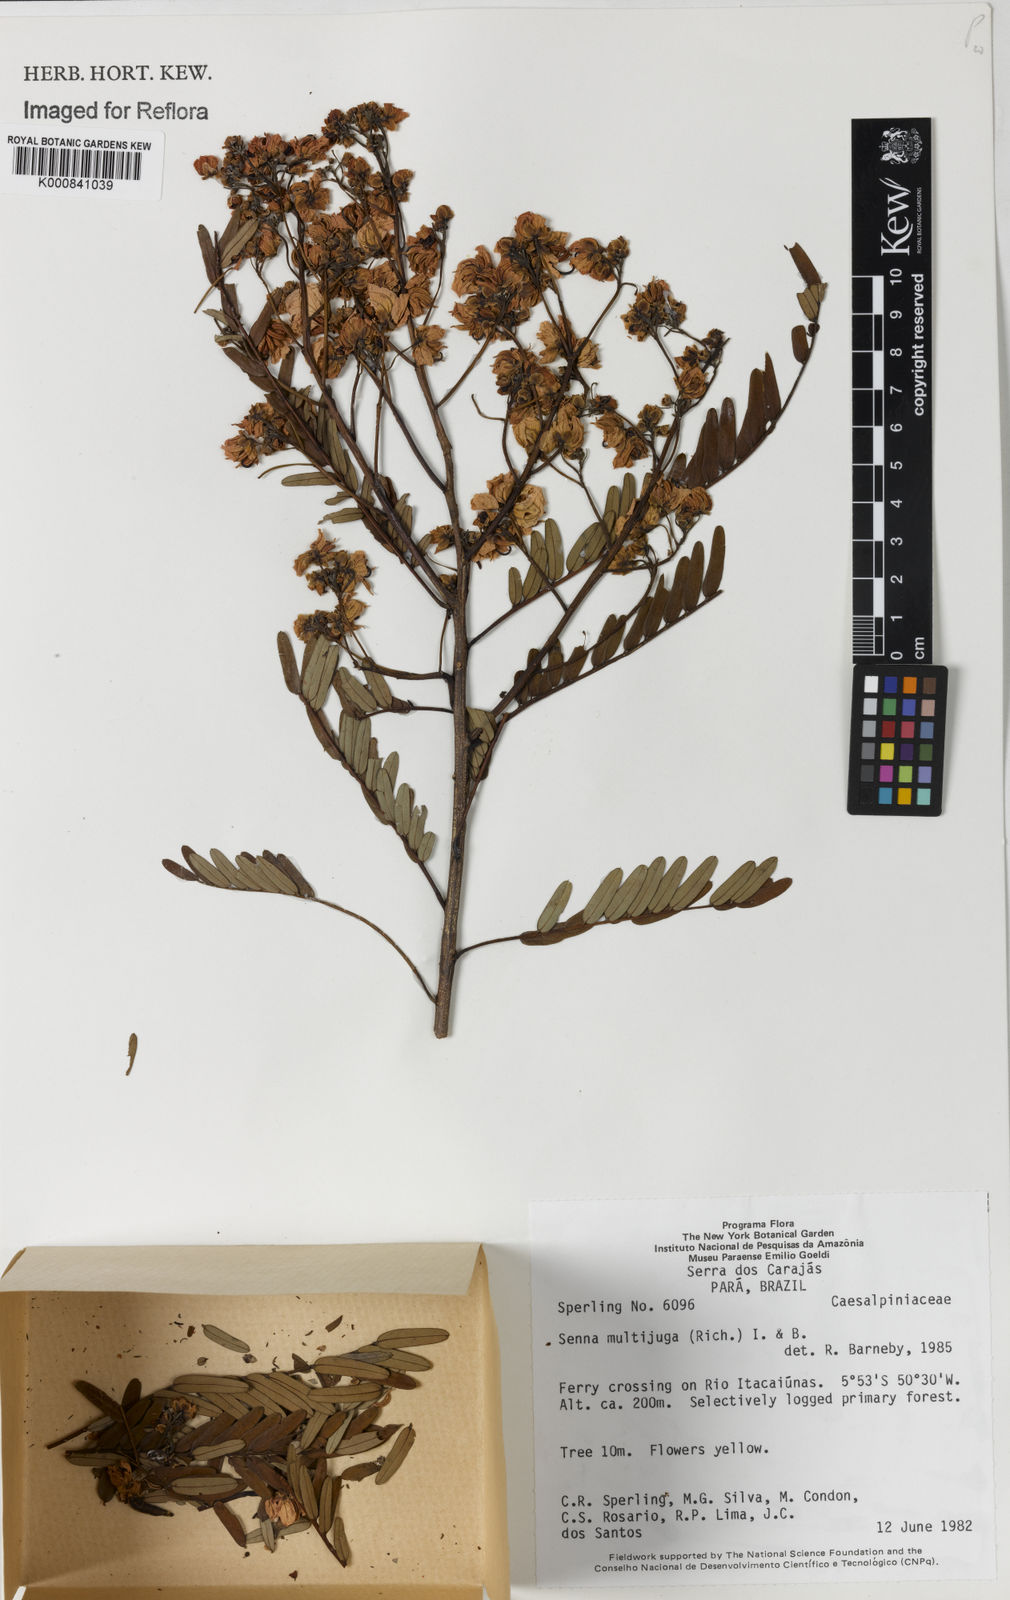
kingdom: Plantae
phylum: Tracheophyta
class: Magnoliopsida
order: Fabales
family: Fabaceae
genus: Senna
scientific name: Senna multijuga
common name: False sicklepod
